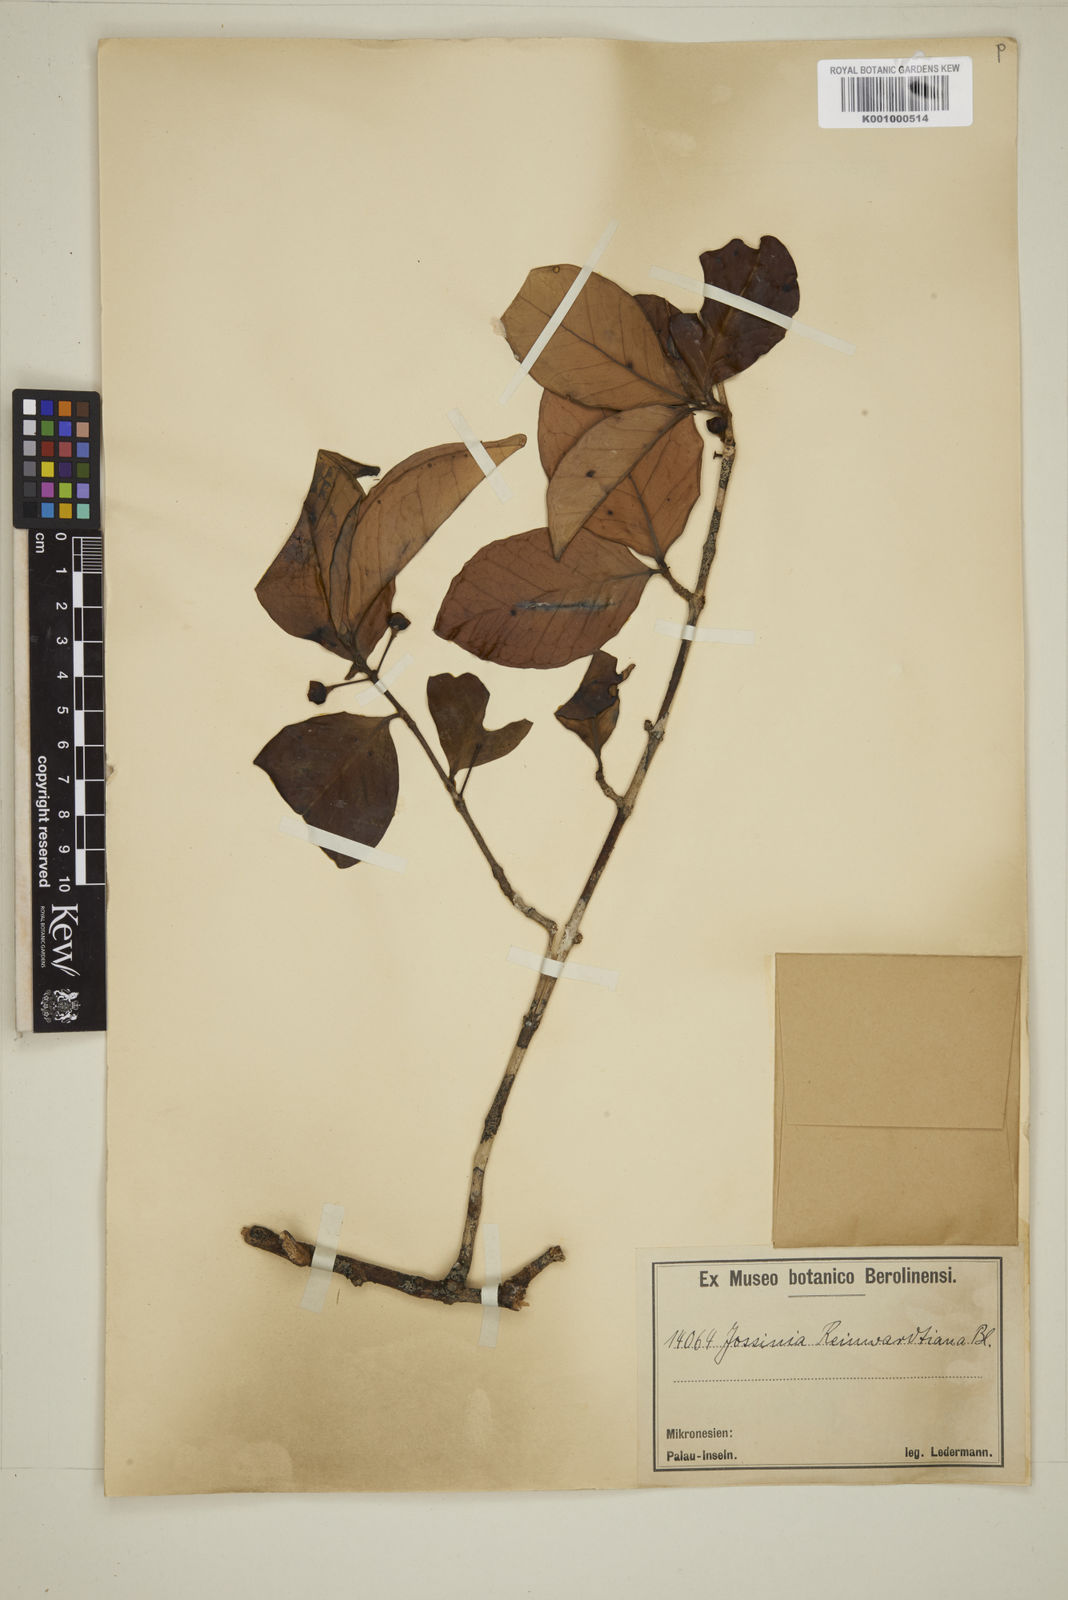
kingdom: Plantae
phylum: Tracheophyta
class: Magnoliopsida
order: Myrtales
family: Myrtaceae
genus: Eugenia
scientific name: Eugenia reinwardtiana
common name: Cedar bay-cherry
